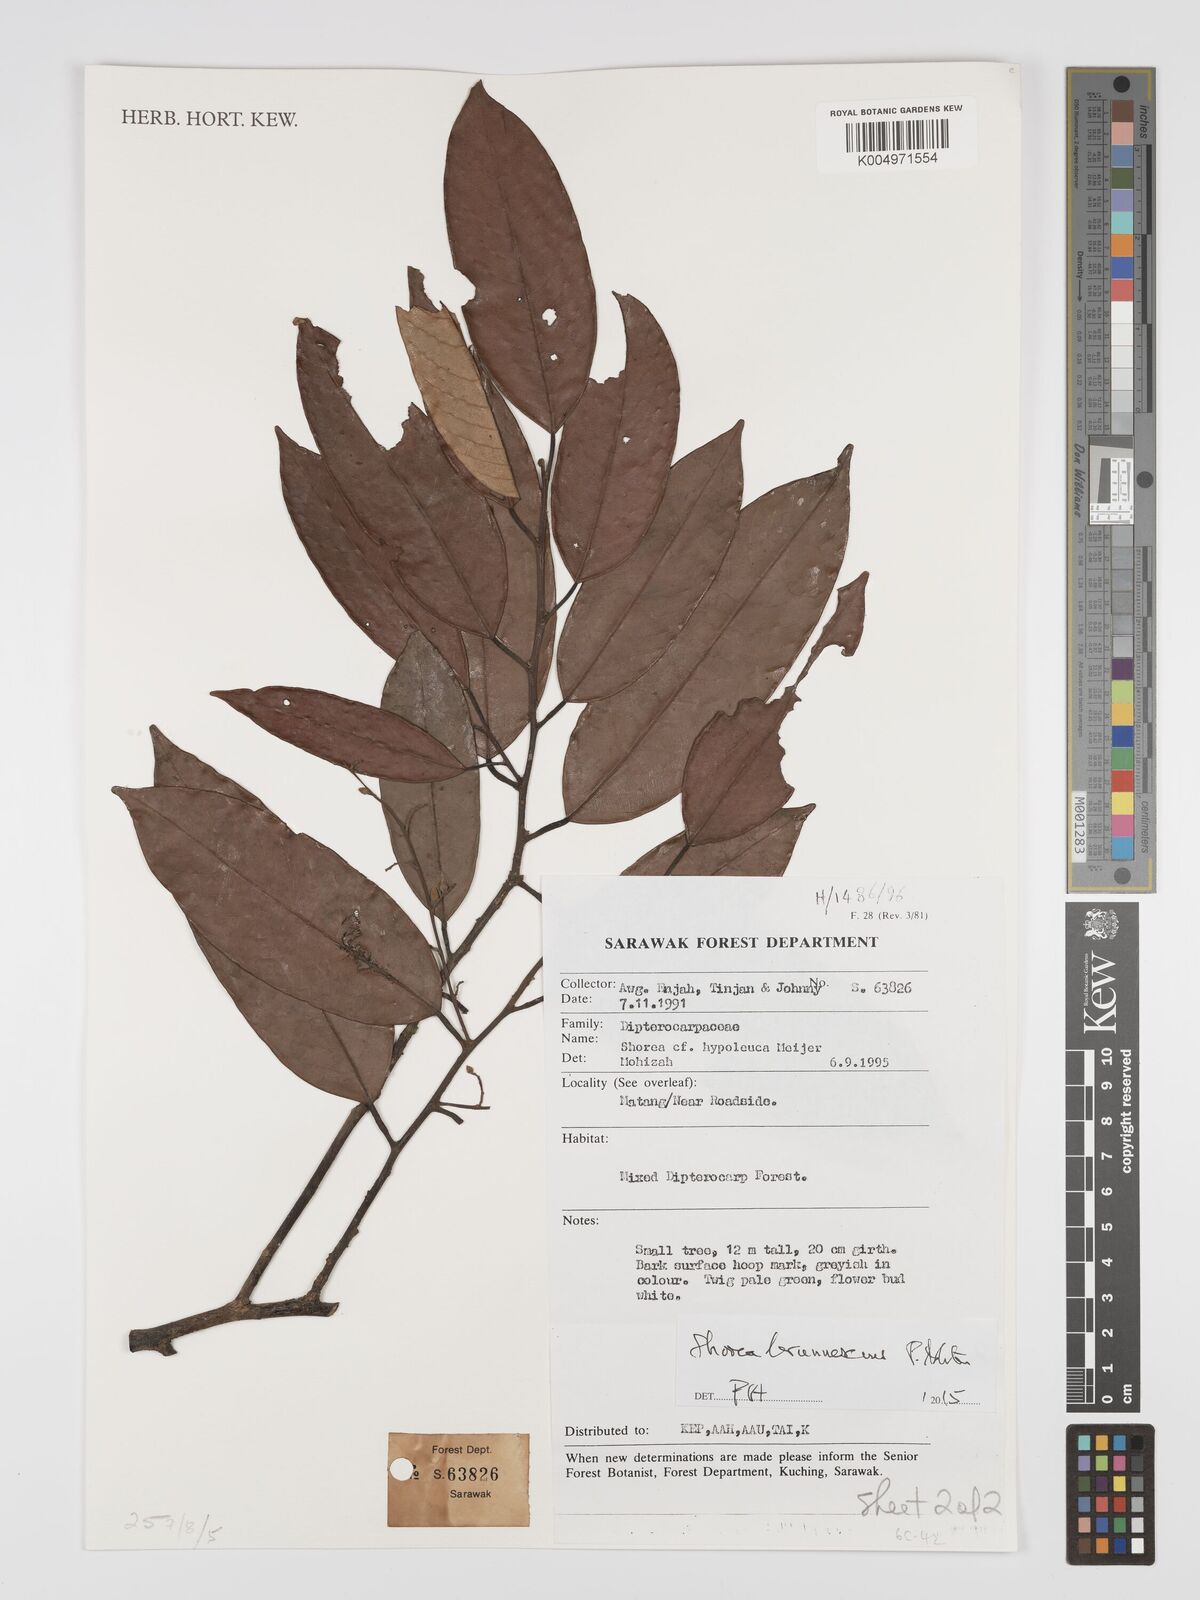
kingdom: Plantae
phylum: Tracheophyta
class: Magnoliopsida
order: Malvales
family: Dipterocarpaceae
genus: Shorea
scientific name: Shorea brunnescens
